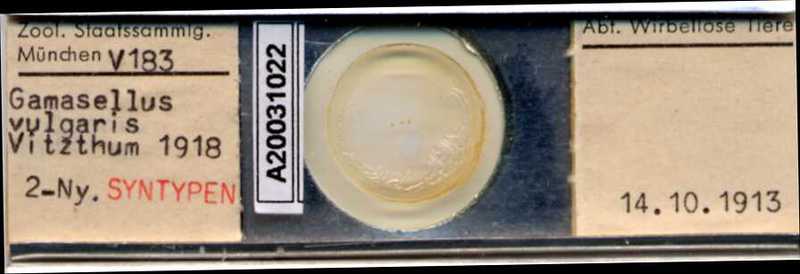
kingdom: Animalia
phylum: Arthropoda
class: Arachnida
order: Mesostigmata
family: Ologamasidae
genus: Gamasellus
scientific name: Gamasellus
